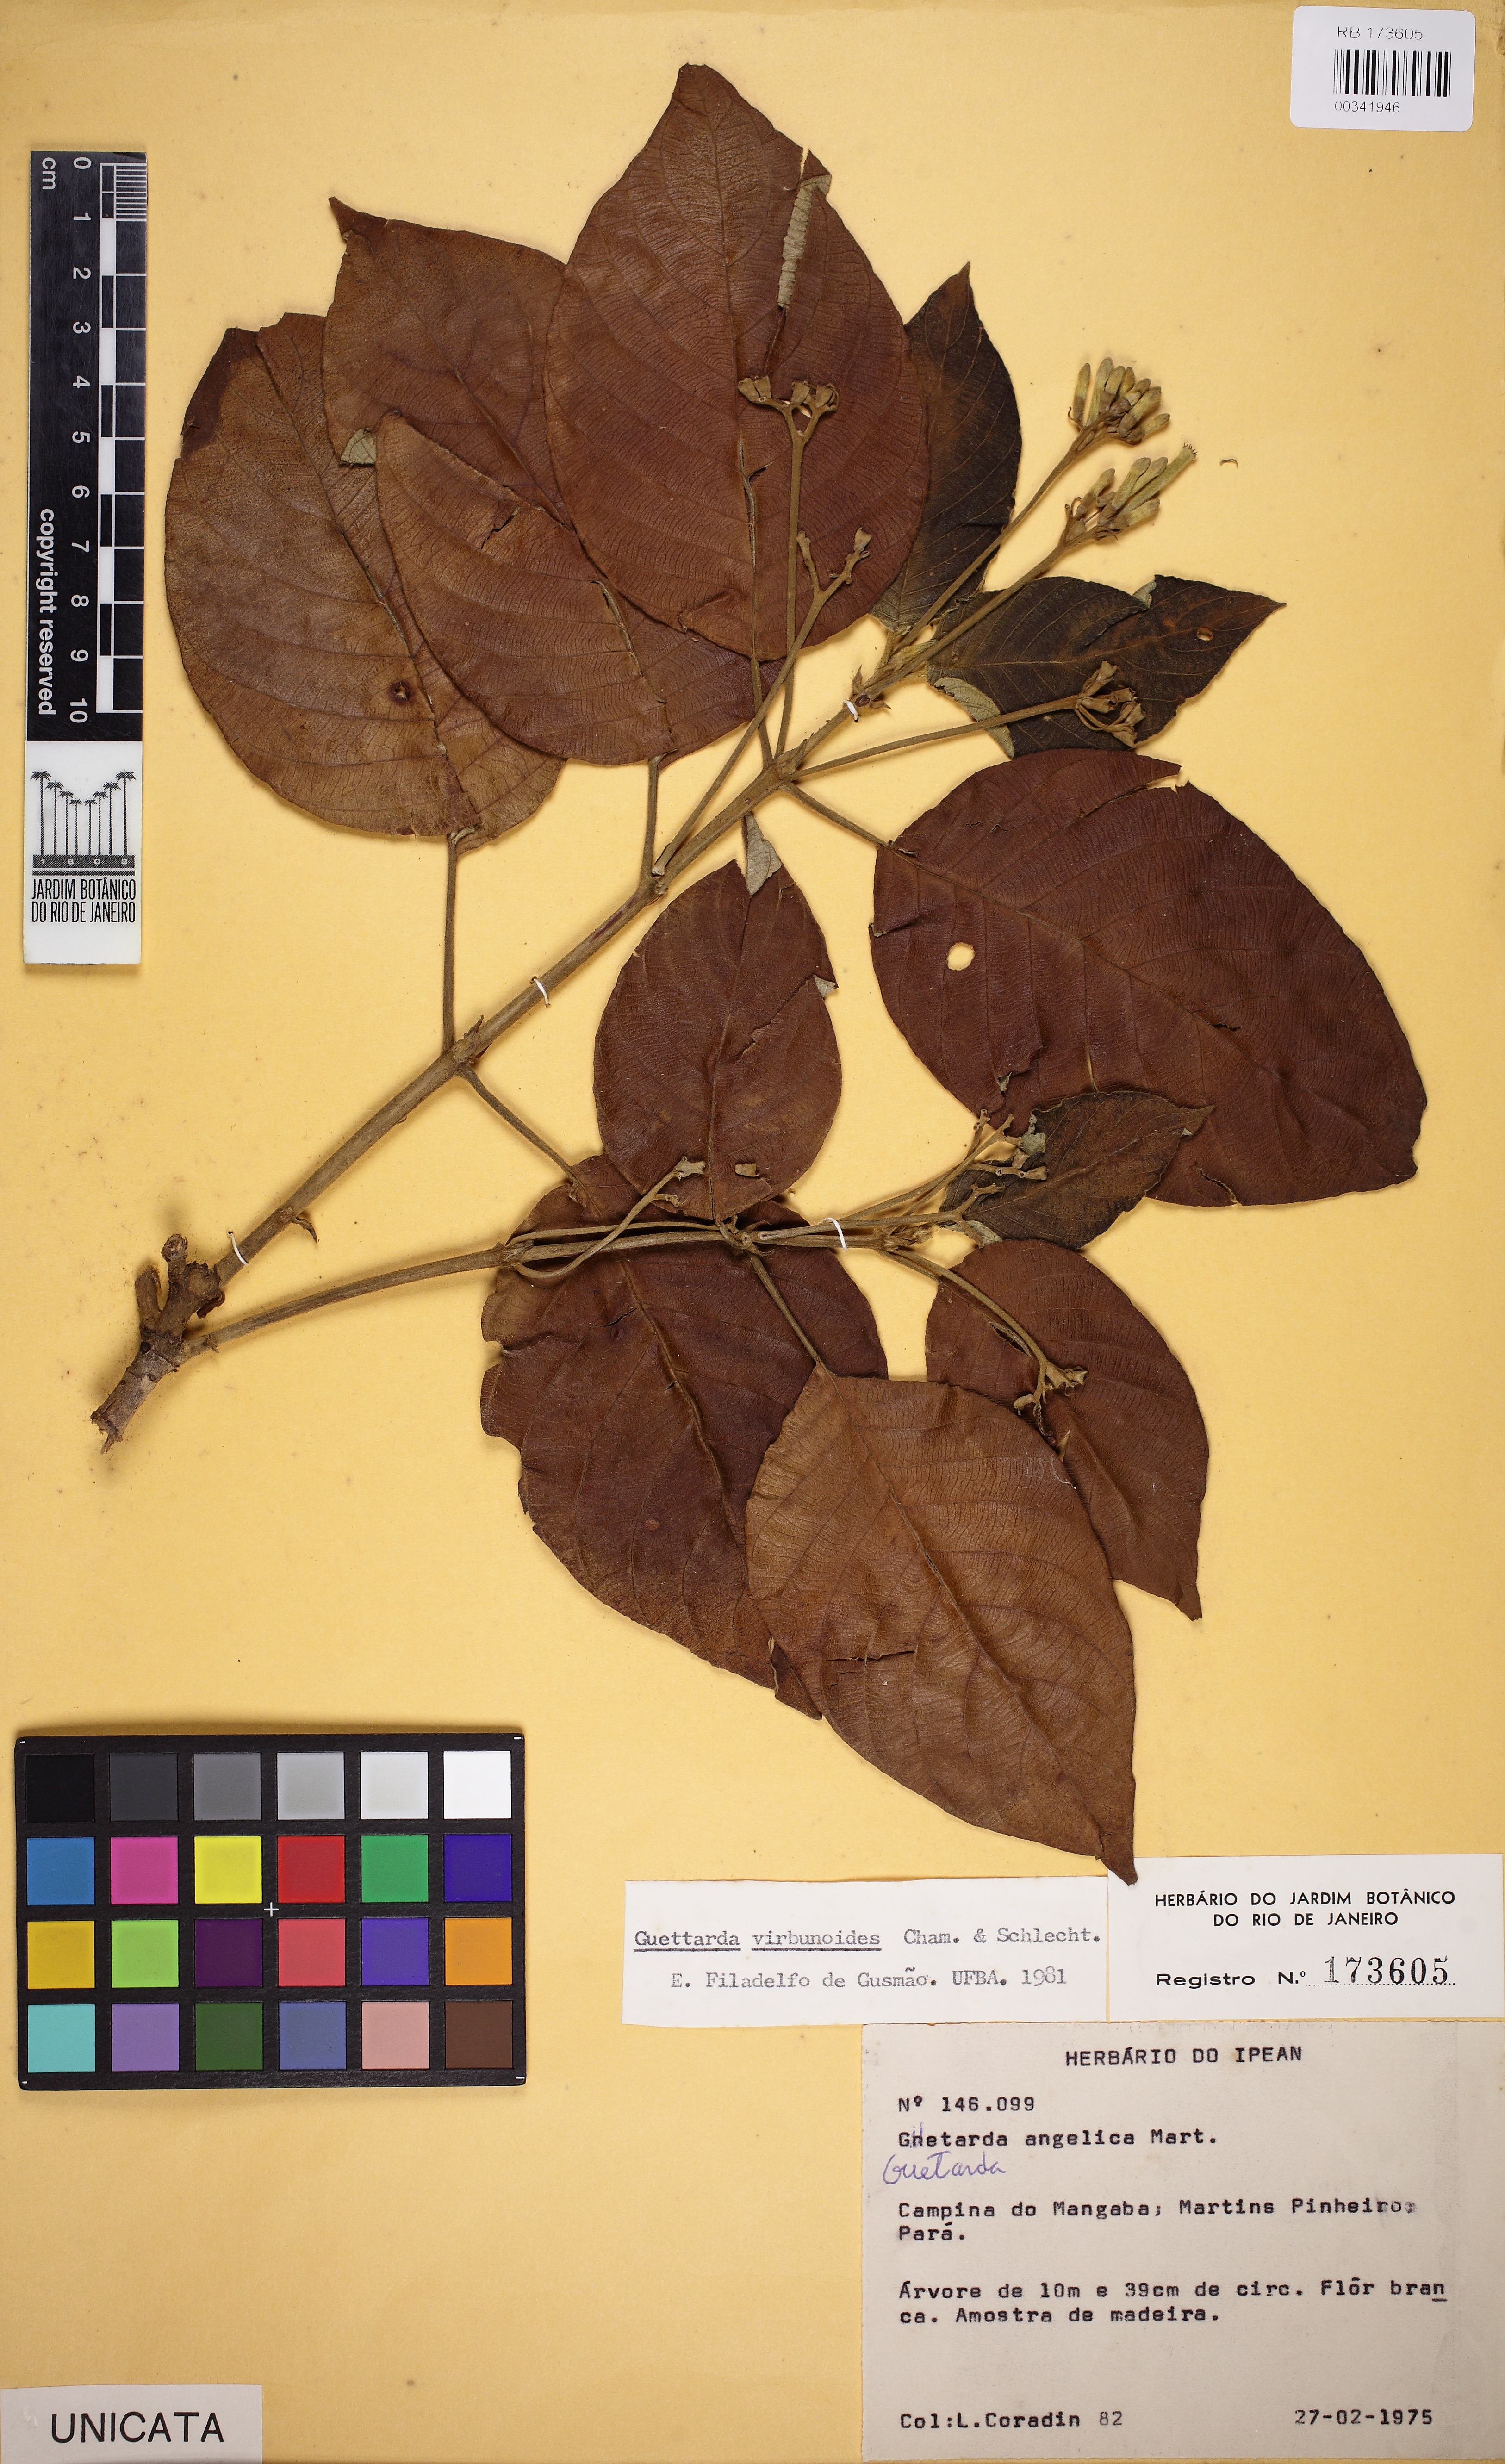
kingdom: Plantae
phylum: Tracheophyta
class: Magnoliopsida
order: Gentianales
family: Rubiaceae
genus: Guettarda
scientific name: Guettarda viburnoides
